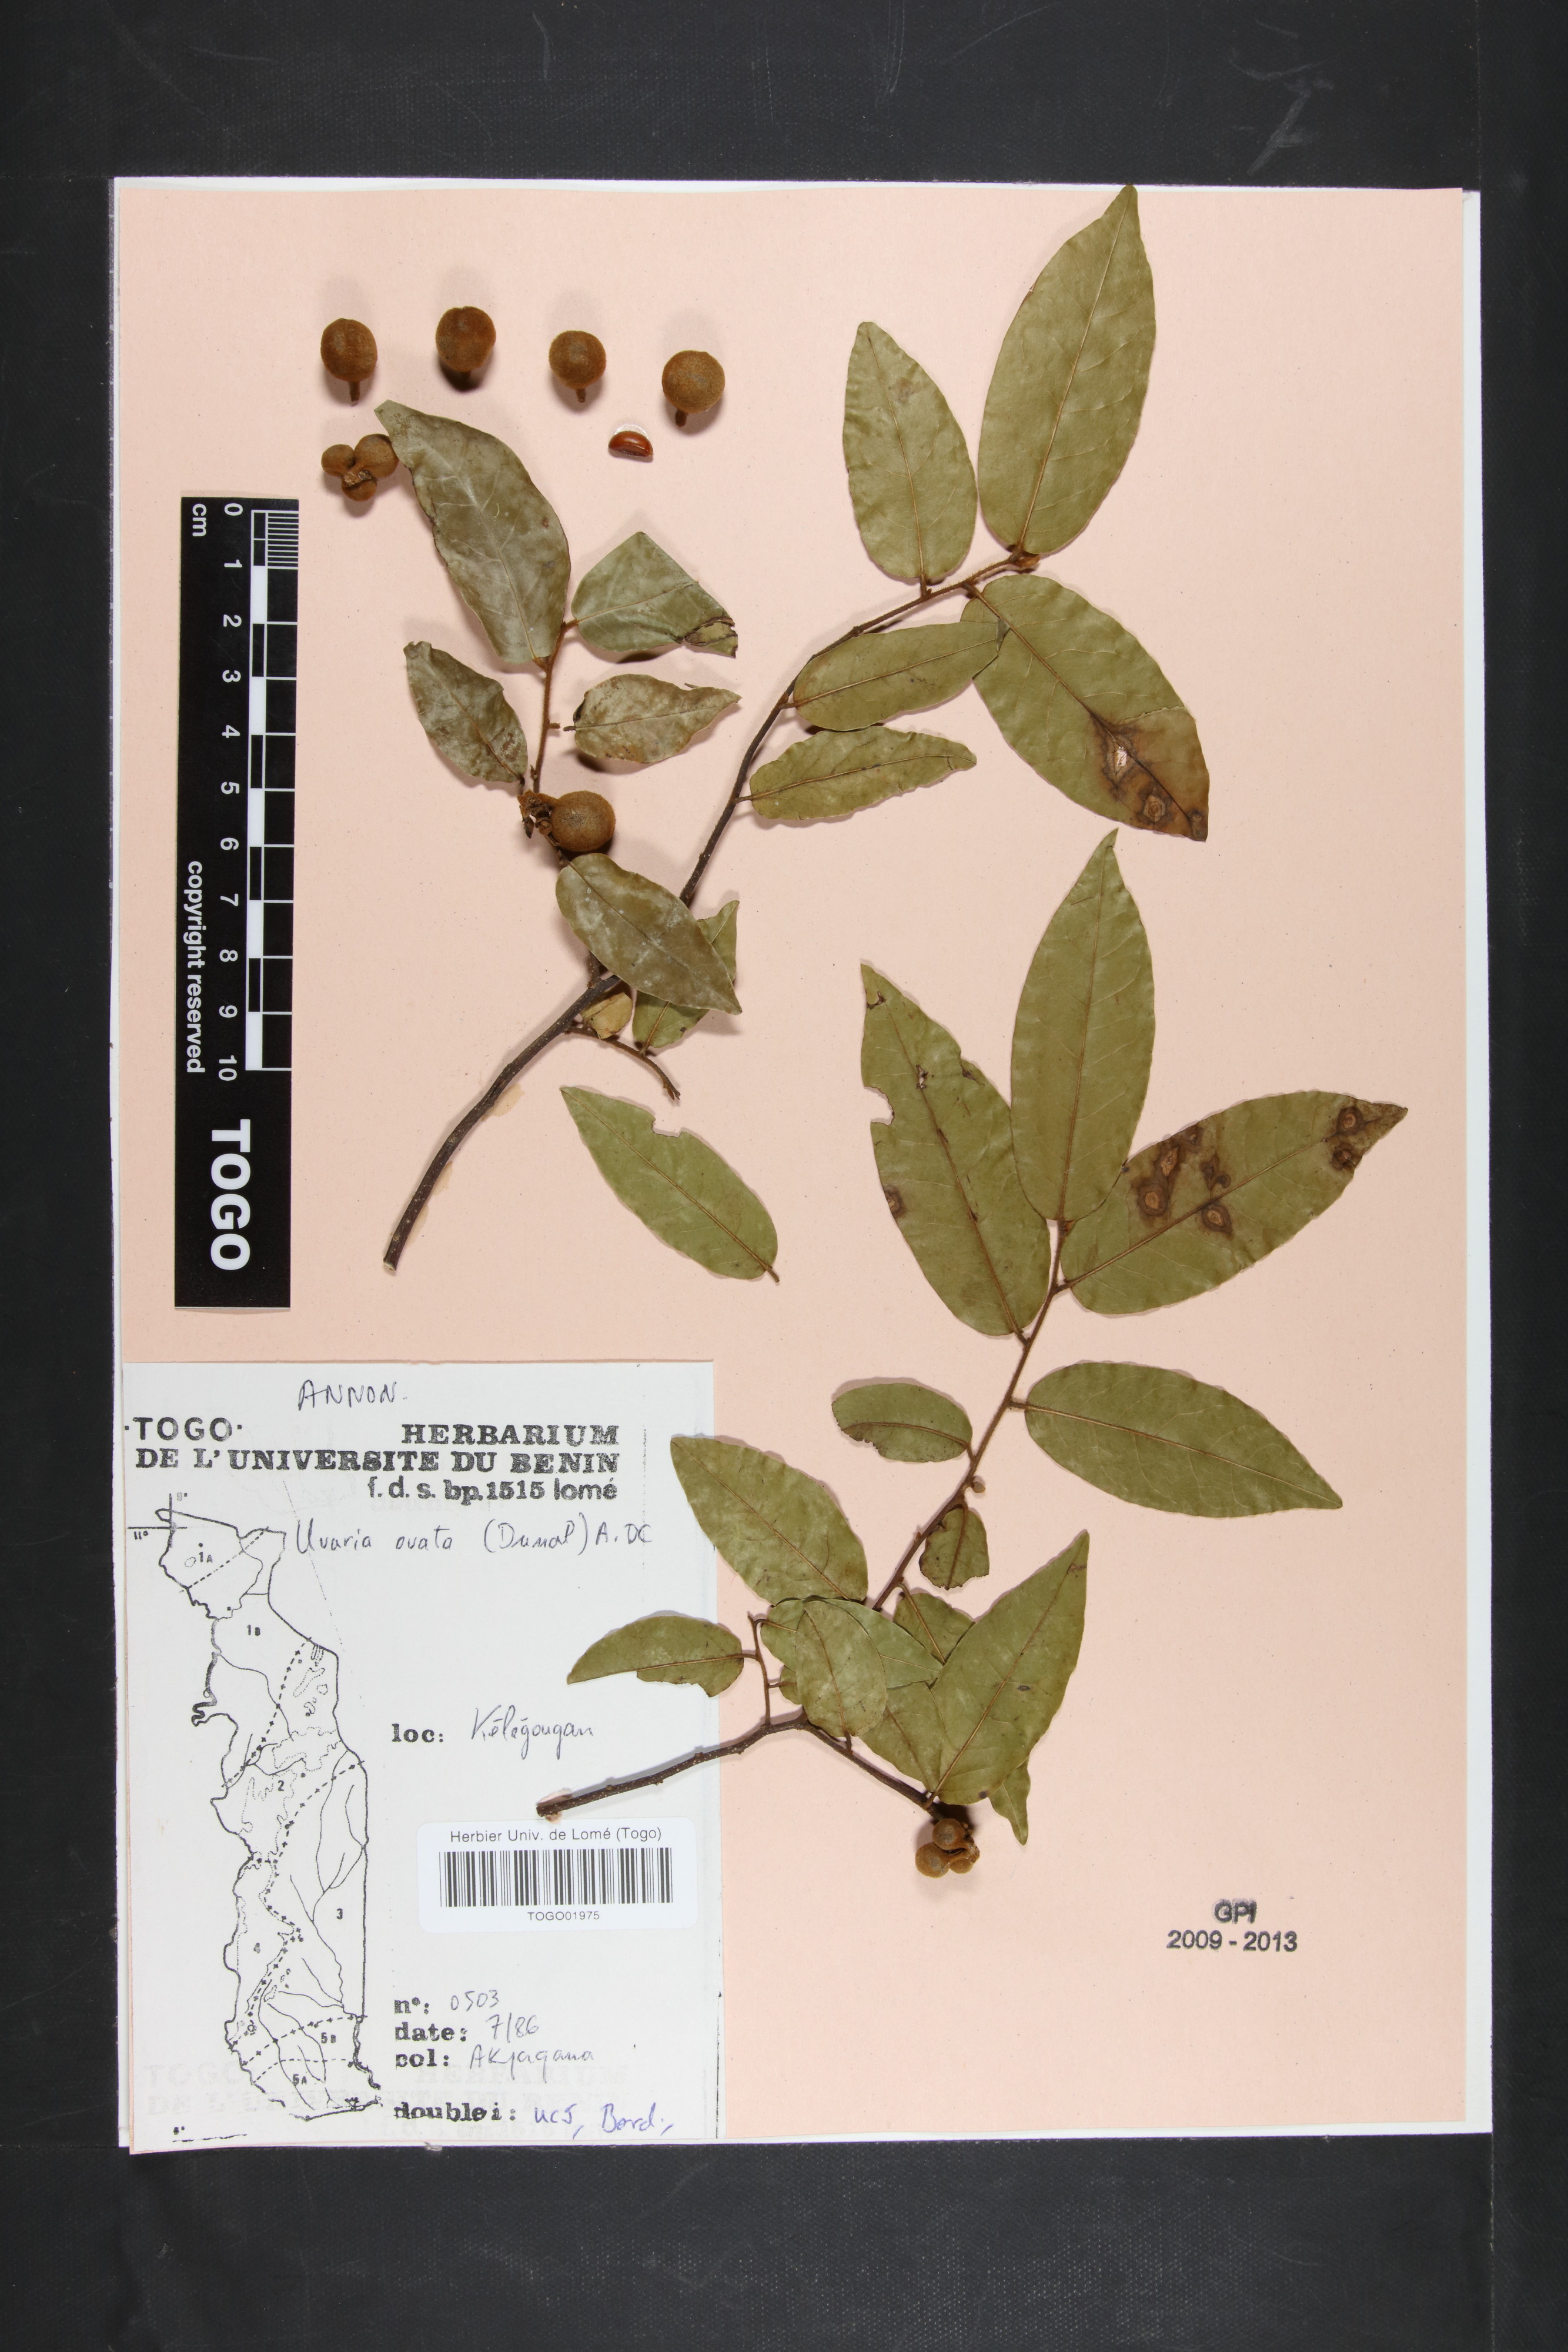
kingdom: Plantae
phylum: Tracheophyta
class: Magnoliopsida
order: Magnoliales
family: Annonaceae
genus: Uvaria
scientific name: Uvaria ovata
